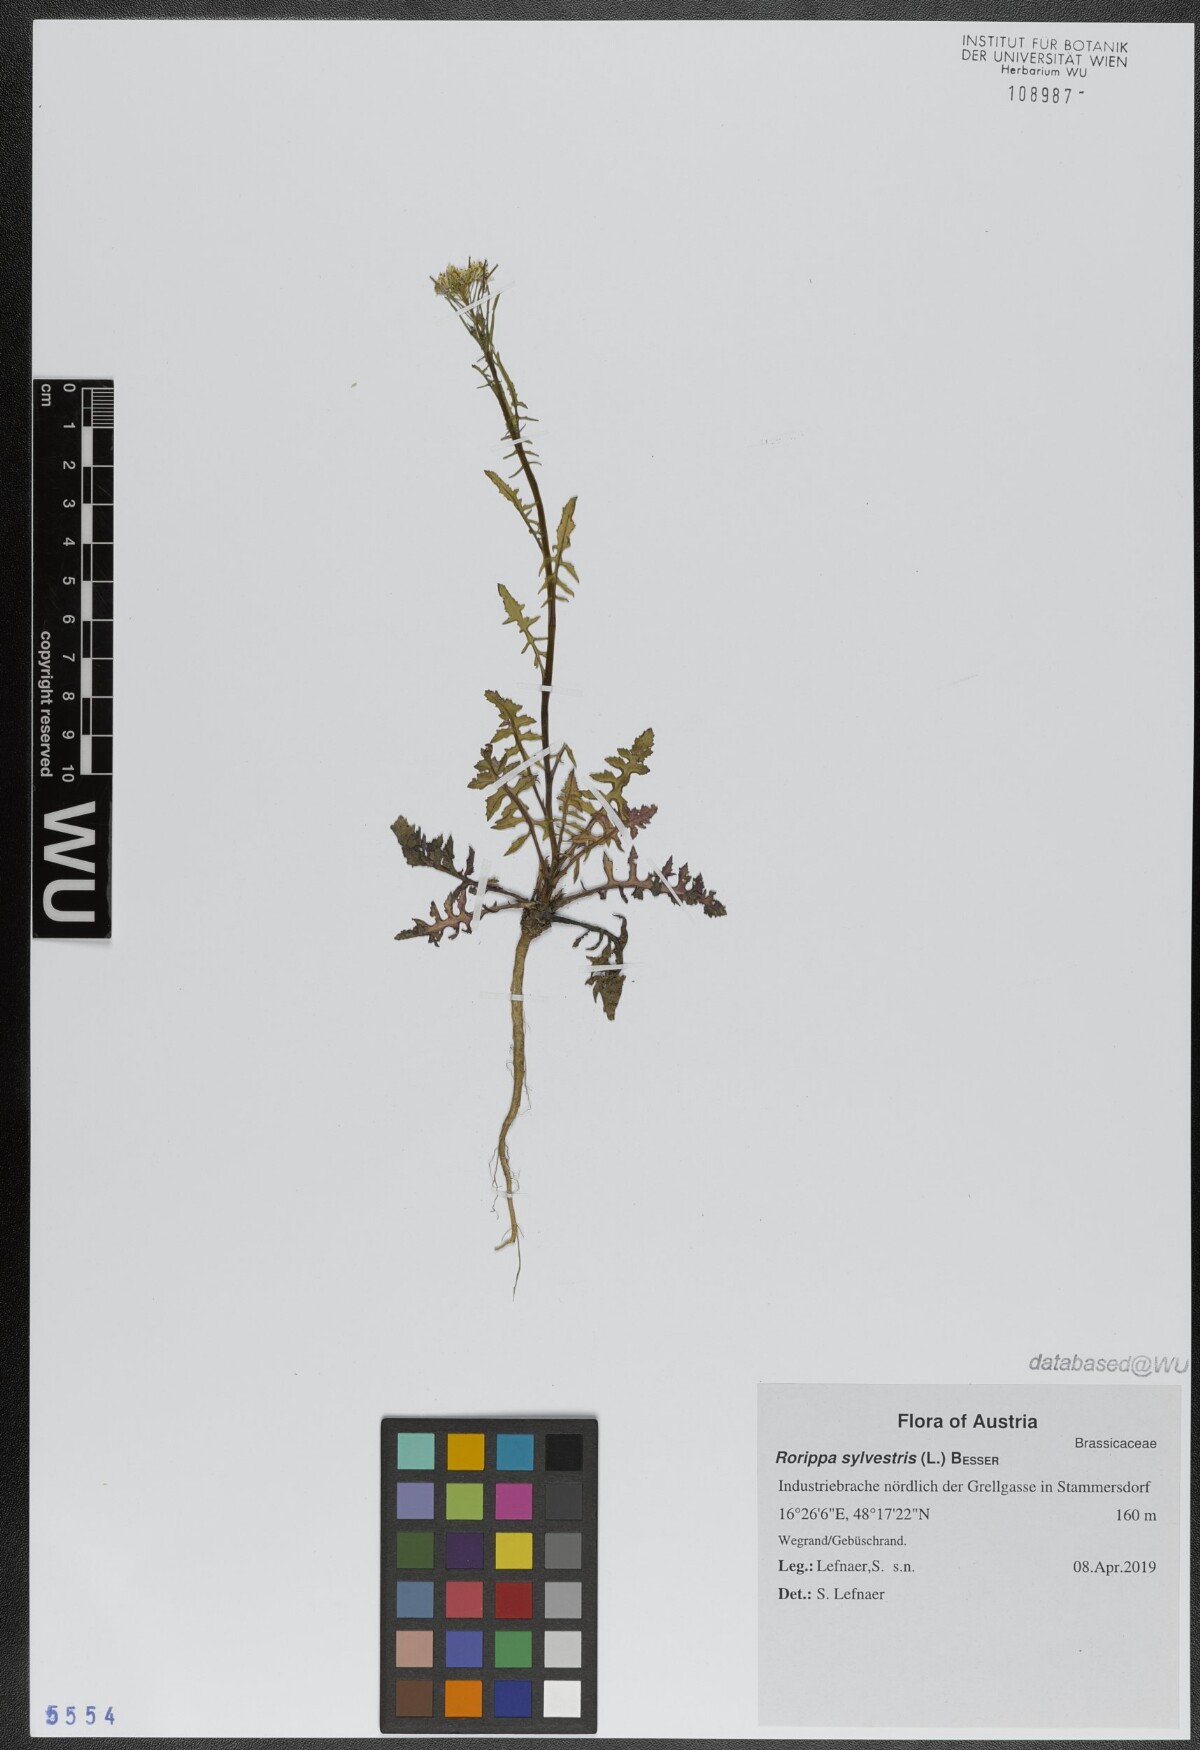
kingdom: Plantae
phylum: Tracheophyta
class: Magnoliopsida
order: Brassicales
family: Brassicaceae
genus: Rorippa
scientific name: Rorippa sylvestris
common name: Creeping yellowcress
